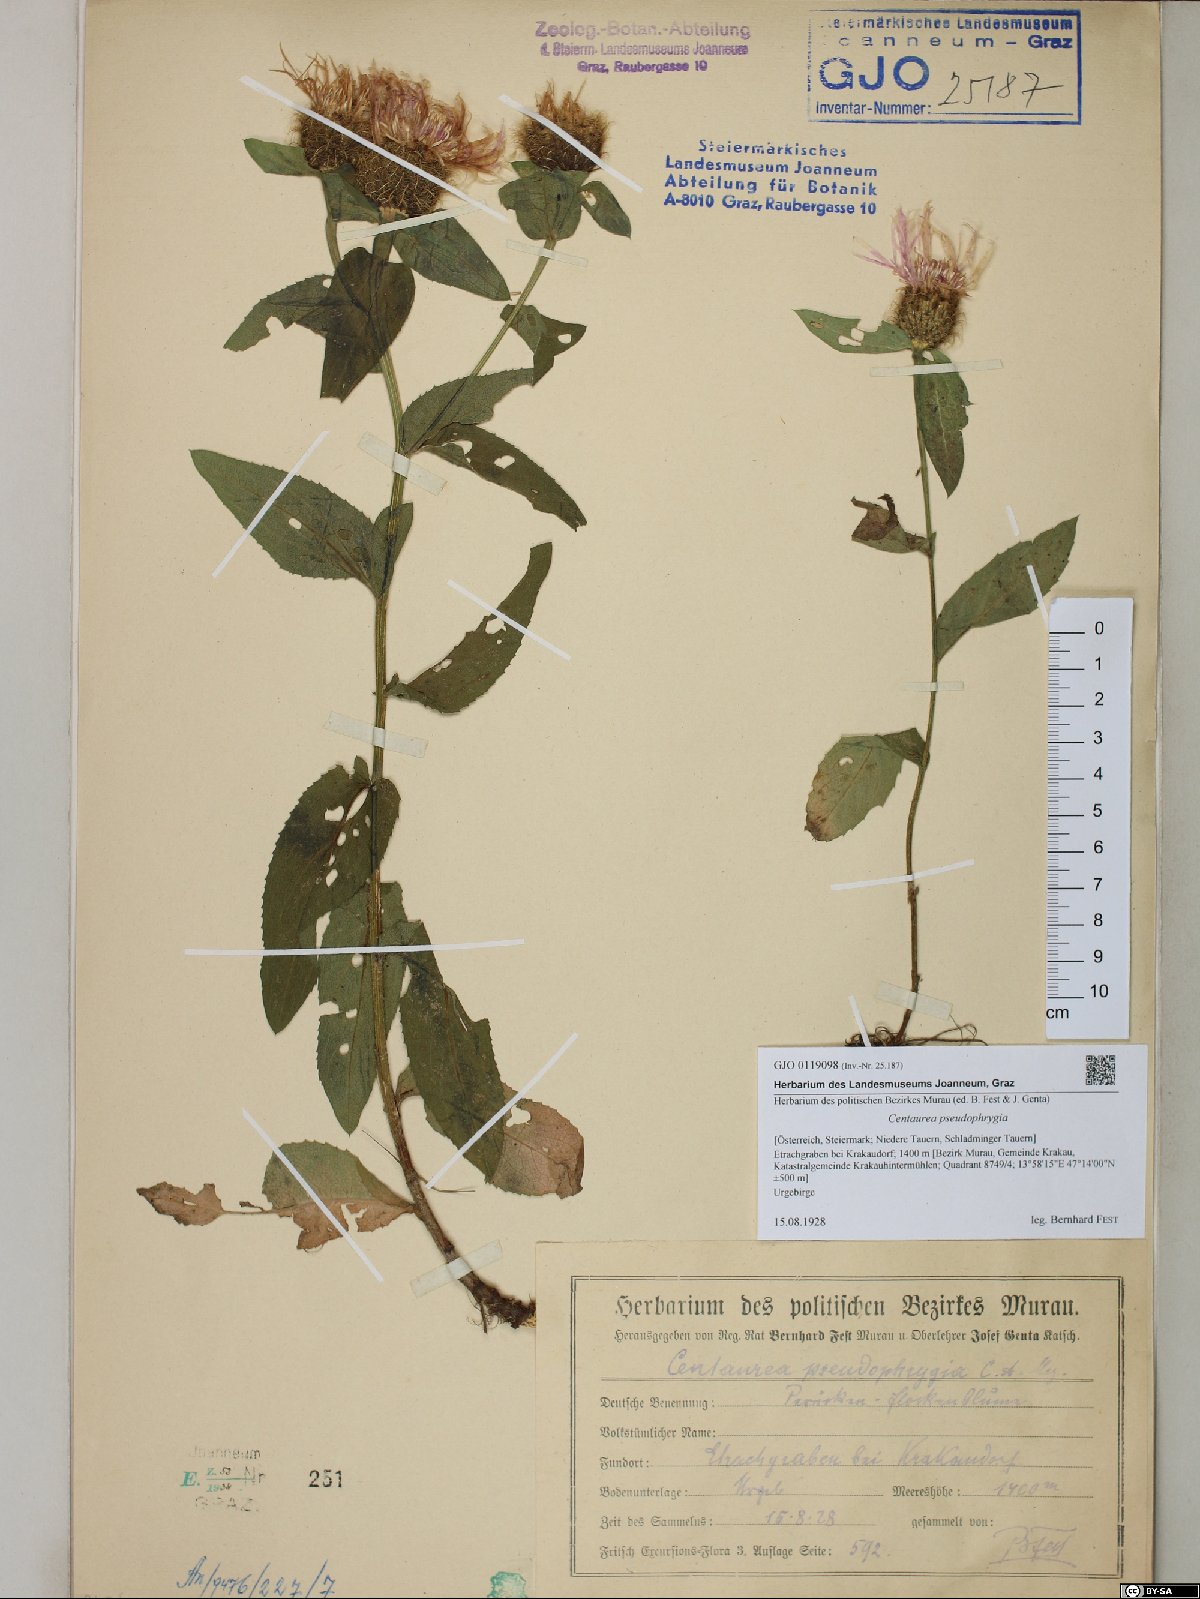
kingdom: Plantae
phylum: Tracheophyta
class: Magnoliopsida
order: Asterales
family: Asteraceae
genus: Centaurea
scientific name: Centaurea pseudophrygia
